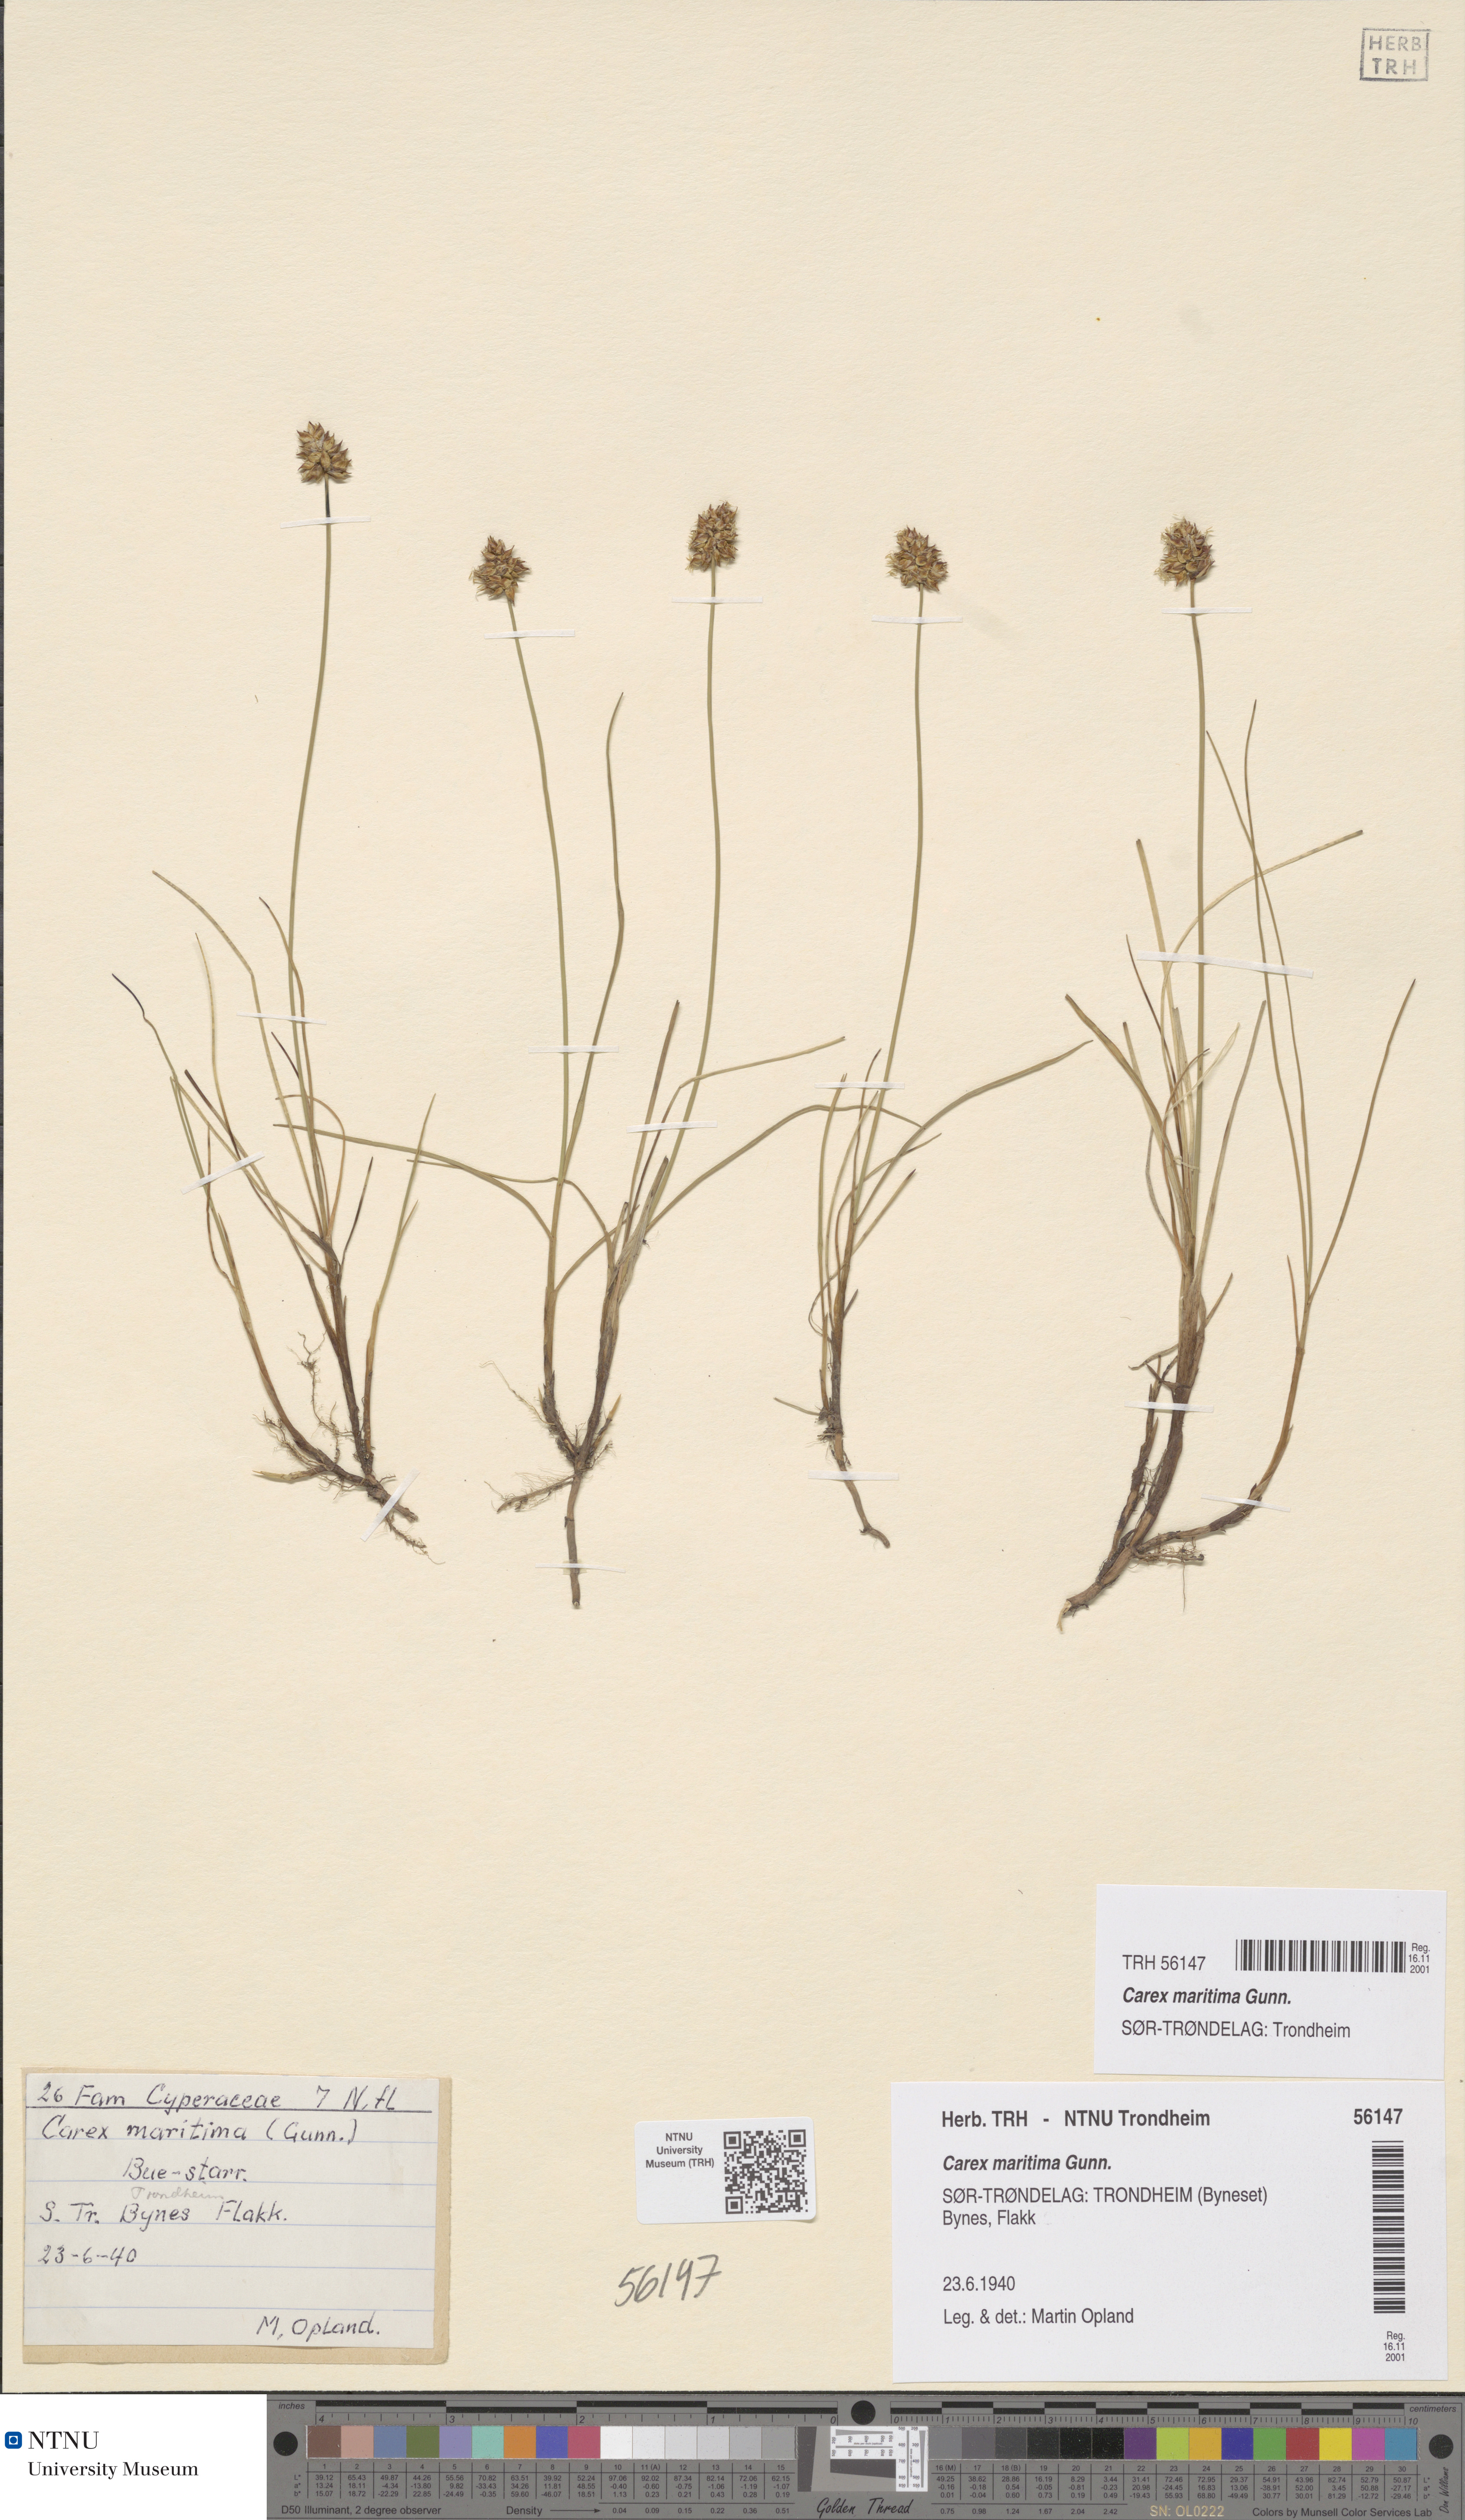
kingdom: Plantae
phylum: Tracheophyta
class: Liliopsida
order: Poales
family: Cyperaceae
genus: Carex
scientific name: Carex maritima
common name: Curved sedge
